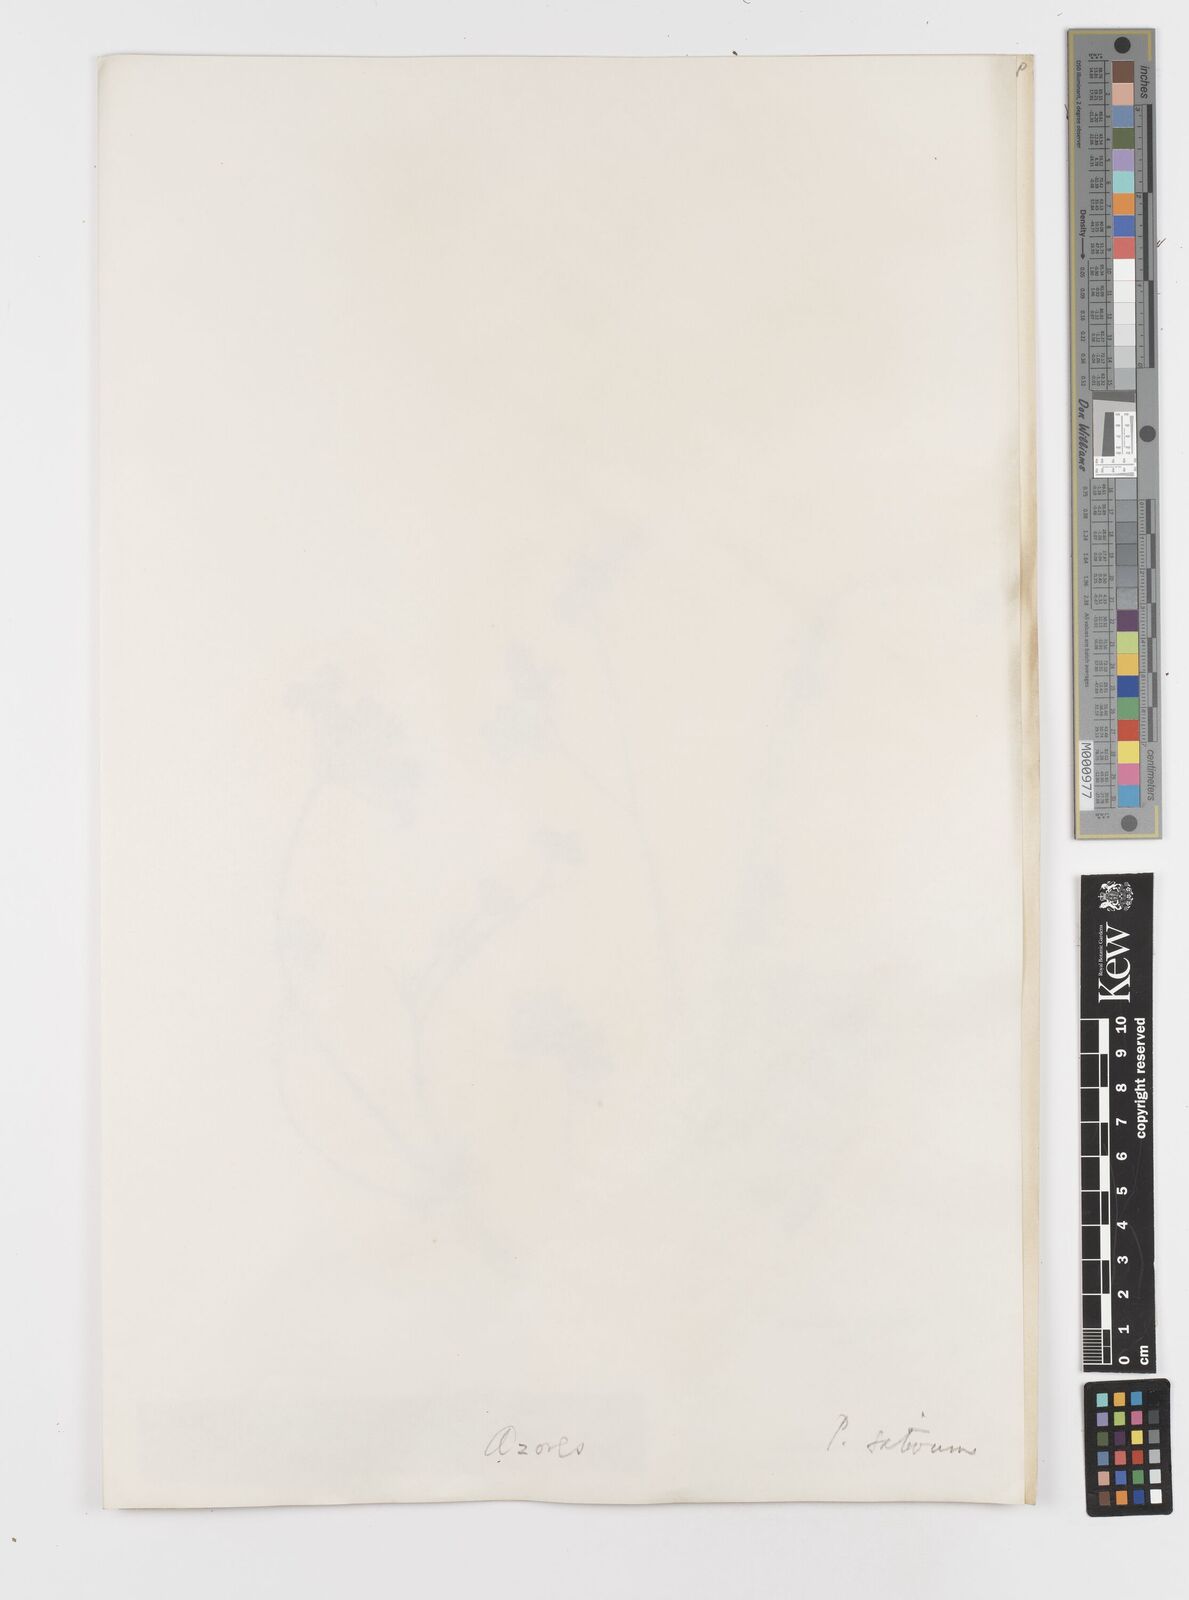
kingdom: Plantae
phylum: Tracheophyta
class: Magnoliopsida
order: Apiales
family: Apiaceae
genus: Petroselinum
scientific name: Petroselinum crispum
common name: Parsley
